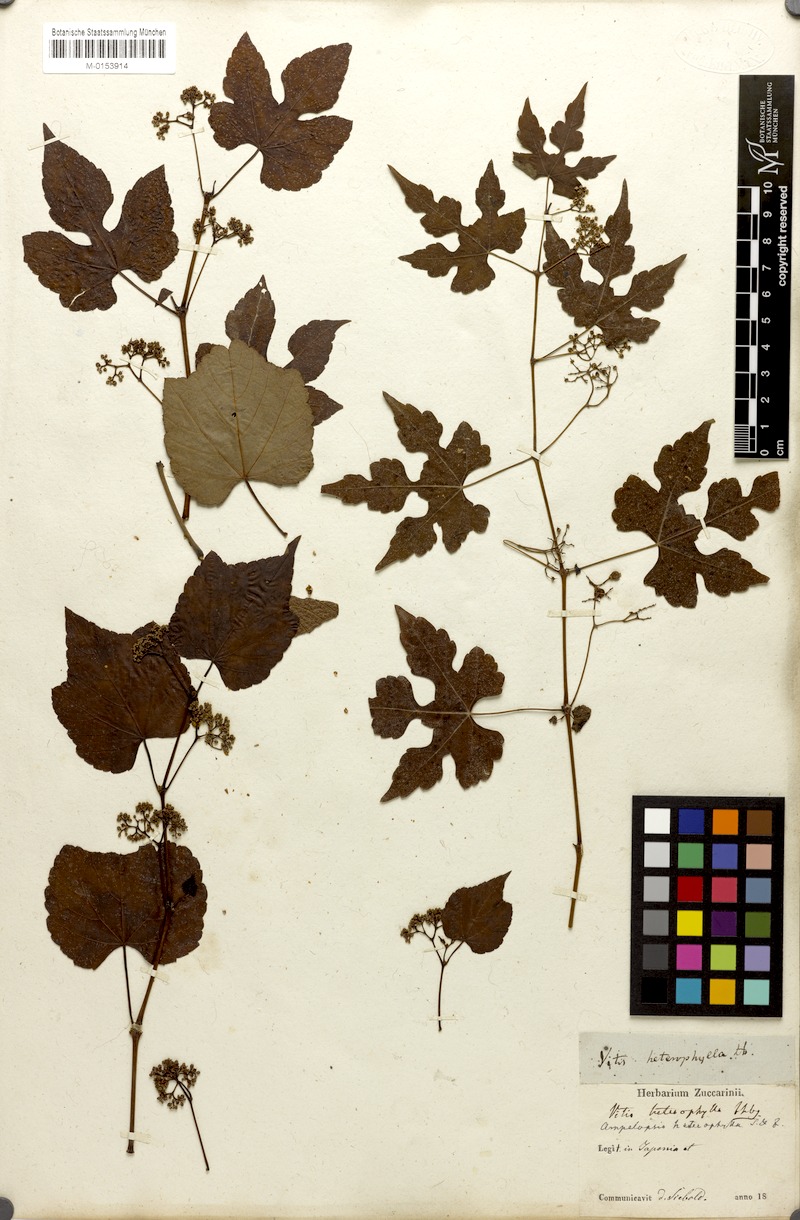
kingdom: Plantae
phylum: Tracheophyta
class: Magnoliopsida
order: Vitales
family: Vitaceae
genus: Ampelopsis
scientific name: Ampelopsis glandulosa
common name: Amur peppervine
